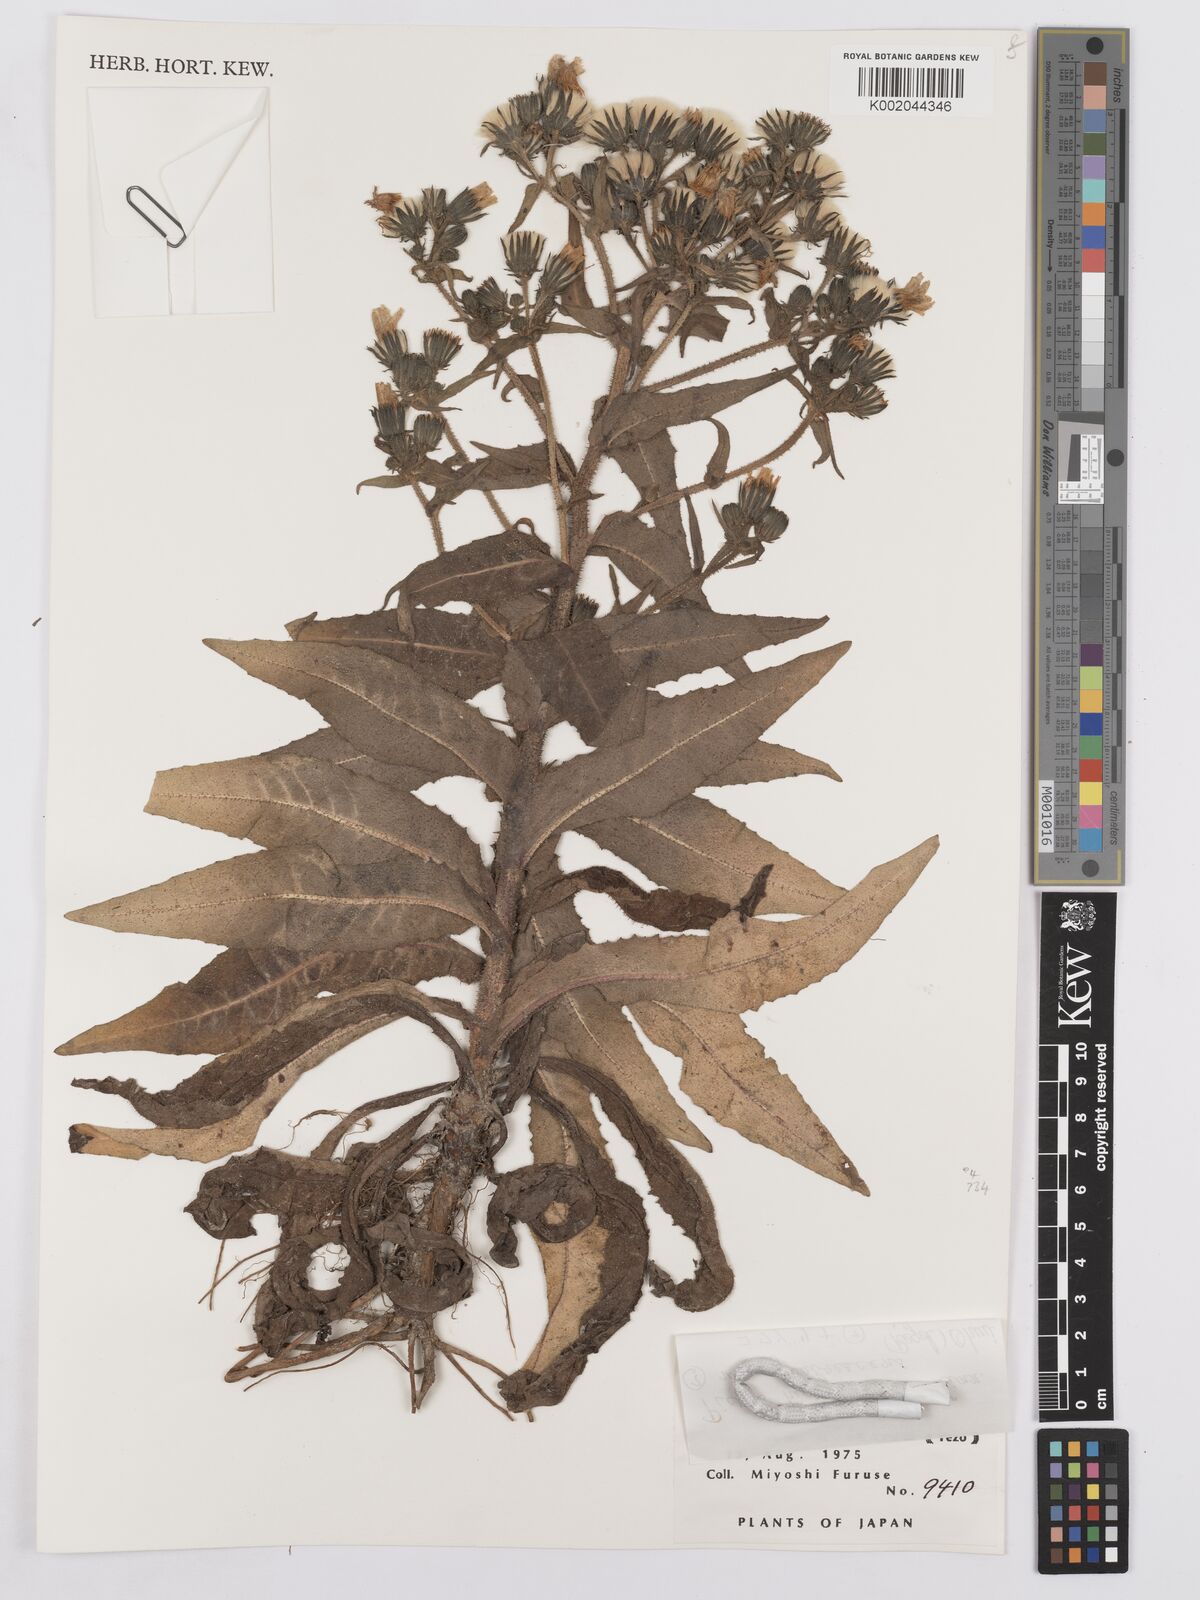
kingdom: Plantae
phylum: Tracheophyta
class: Magnoliopsida
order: Asterales
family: Asteraceae
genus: Picris
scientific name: Picris hieracioides
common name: Hawkweed oxtongue
